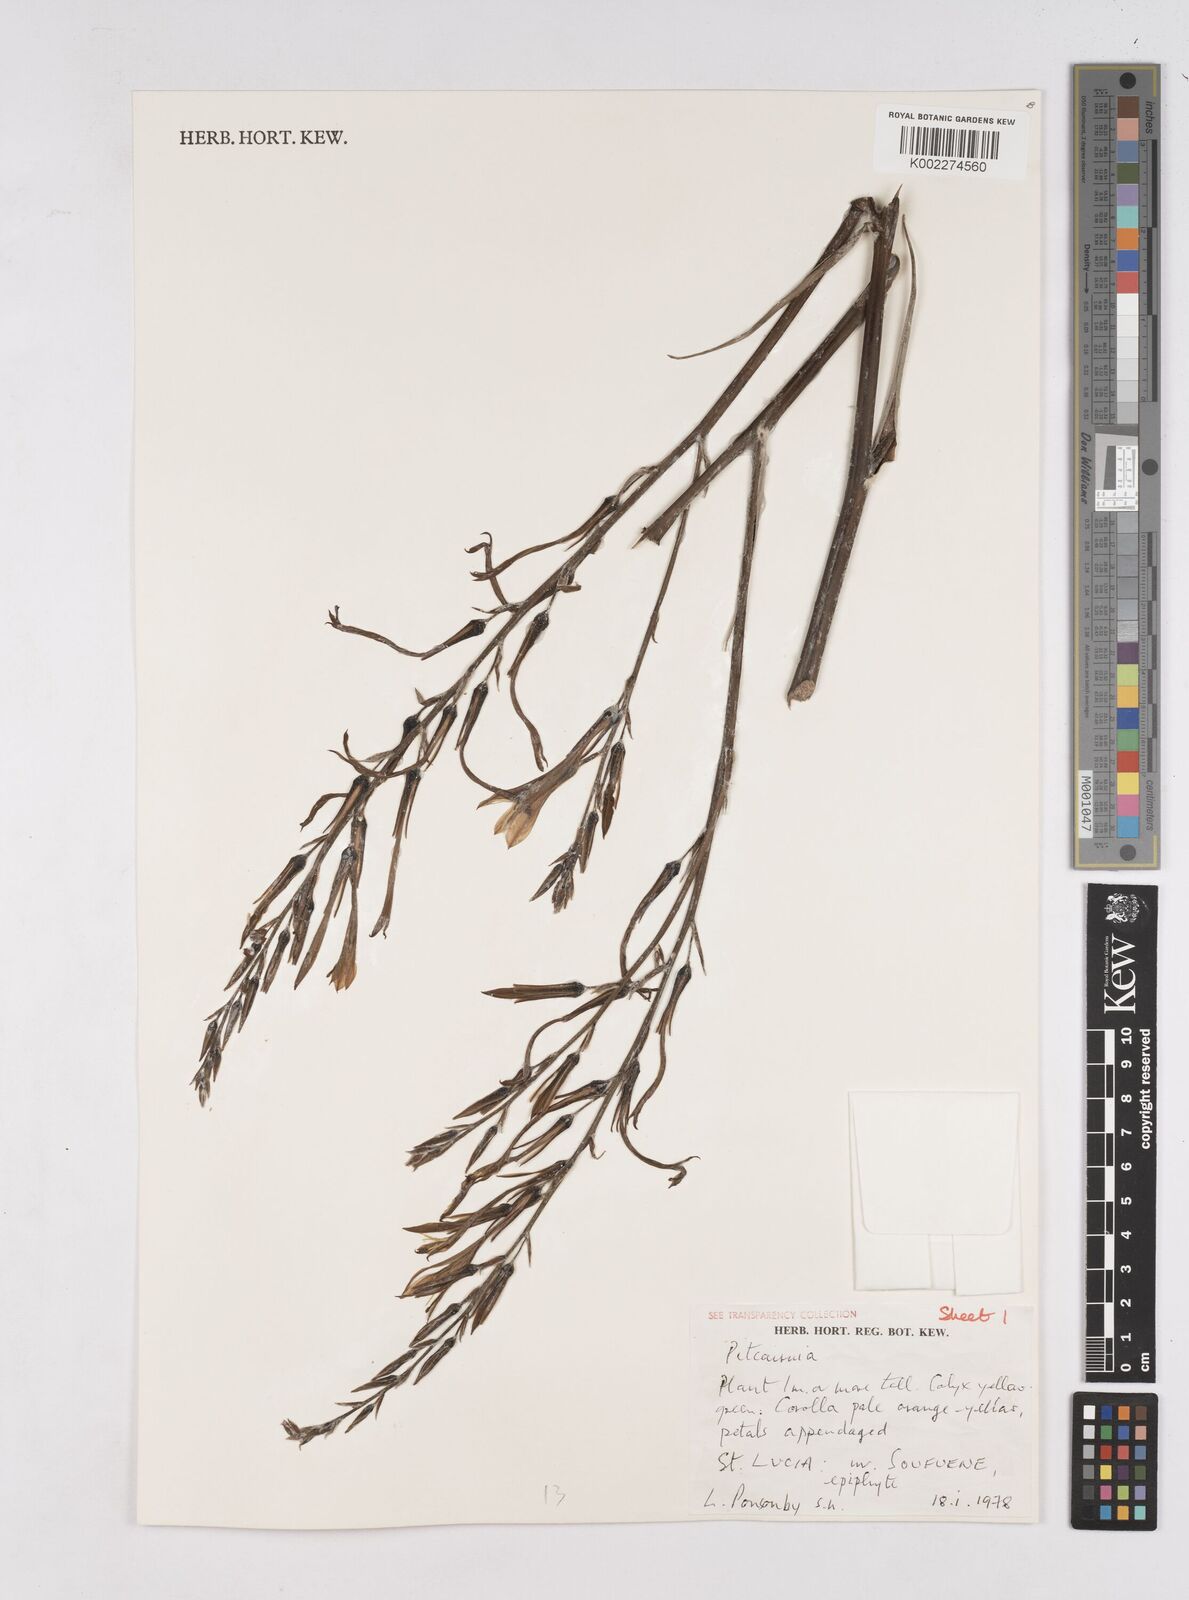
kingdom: Plantae
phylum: Tracheophyta
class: Liliopsida
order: Poales
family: Bromeliaceae
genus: Pitcairnia
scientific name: Pitcairnia
